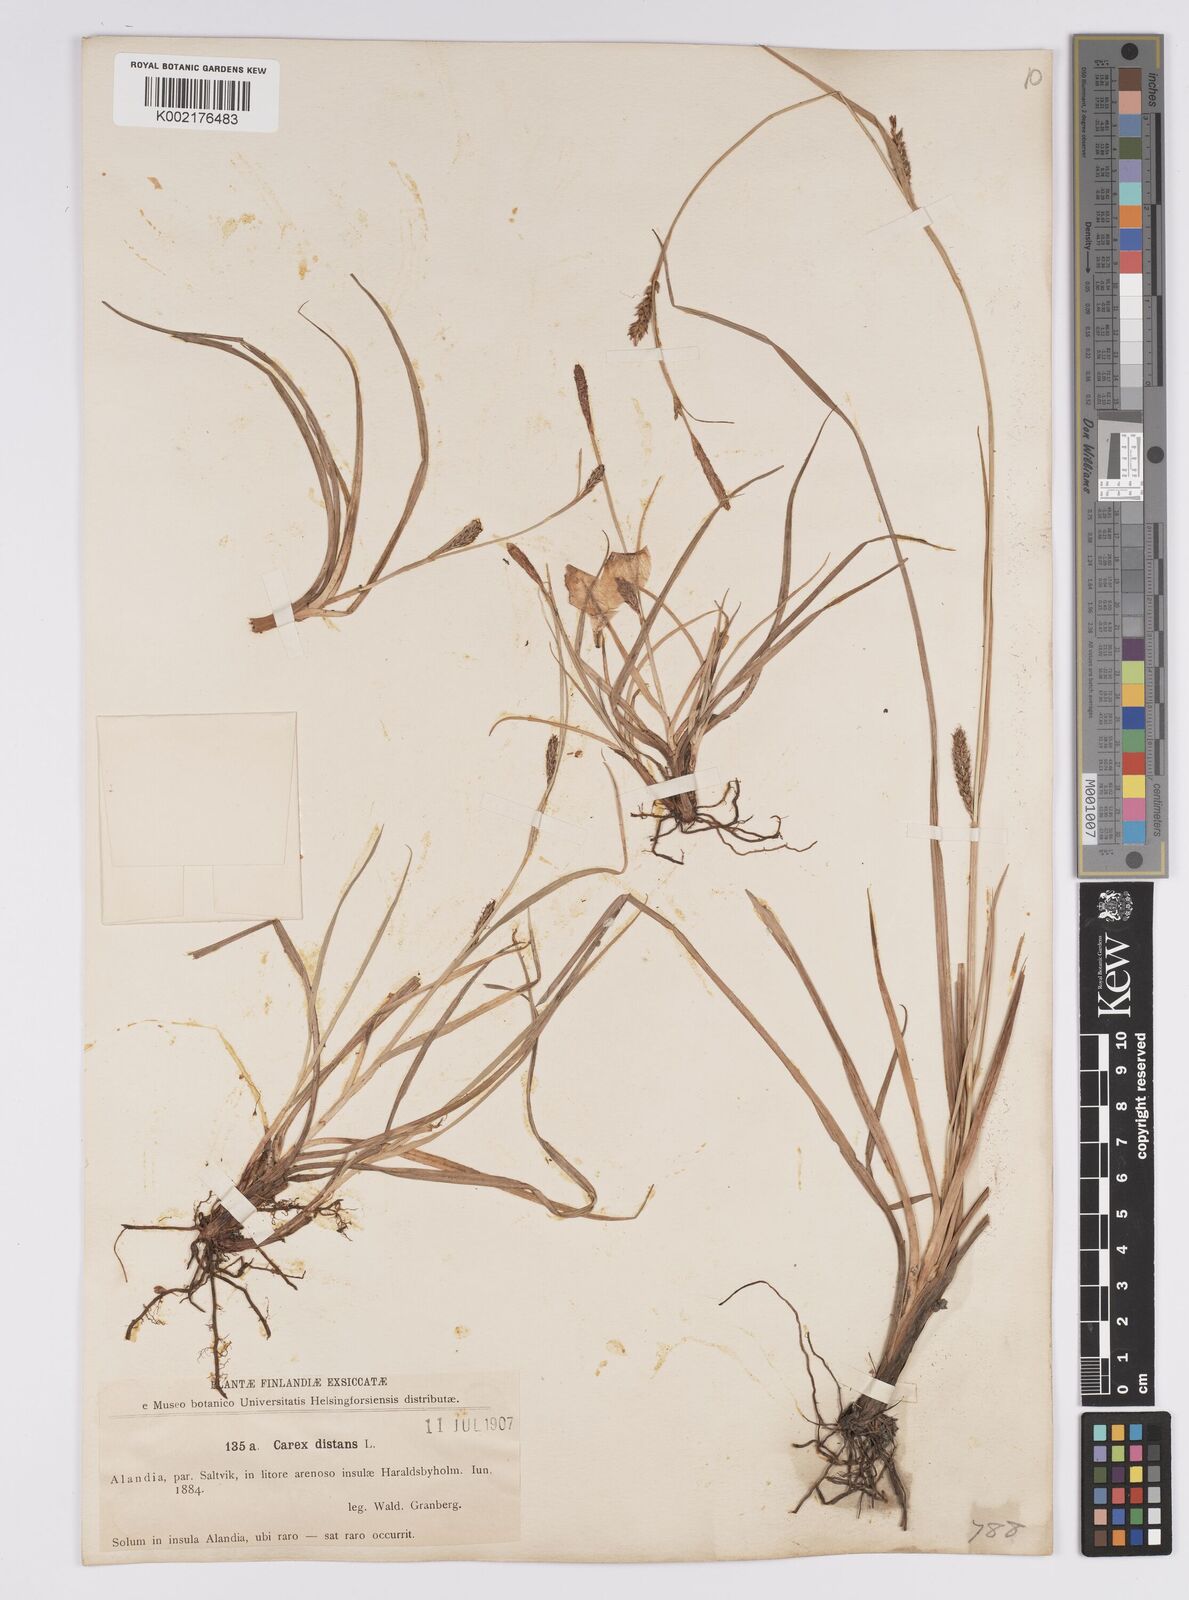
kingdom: Plantae
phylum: Tracheophyta
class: Liliopsida
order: Poales
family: Cyperaceae
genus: Carex
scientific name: Carex distans
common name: Distant sedge
